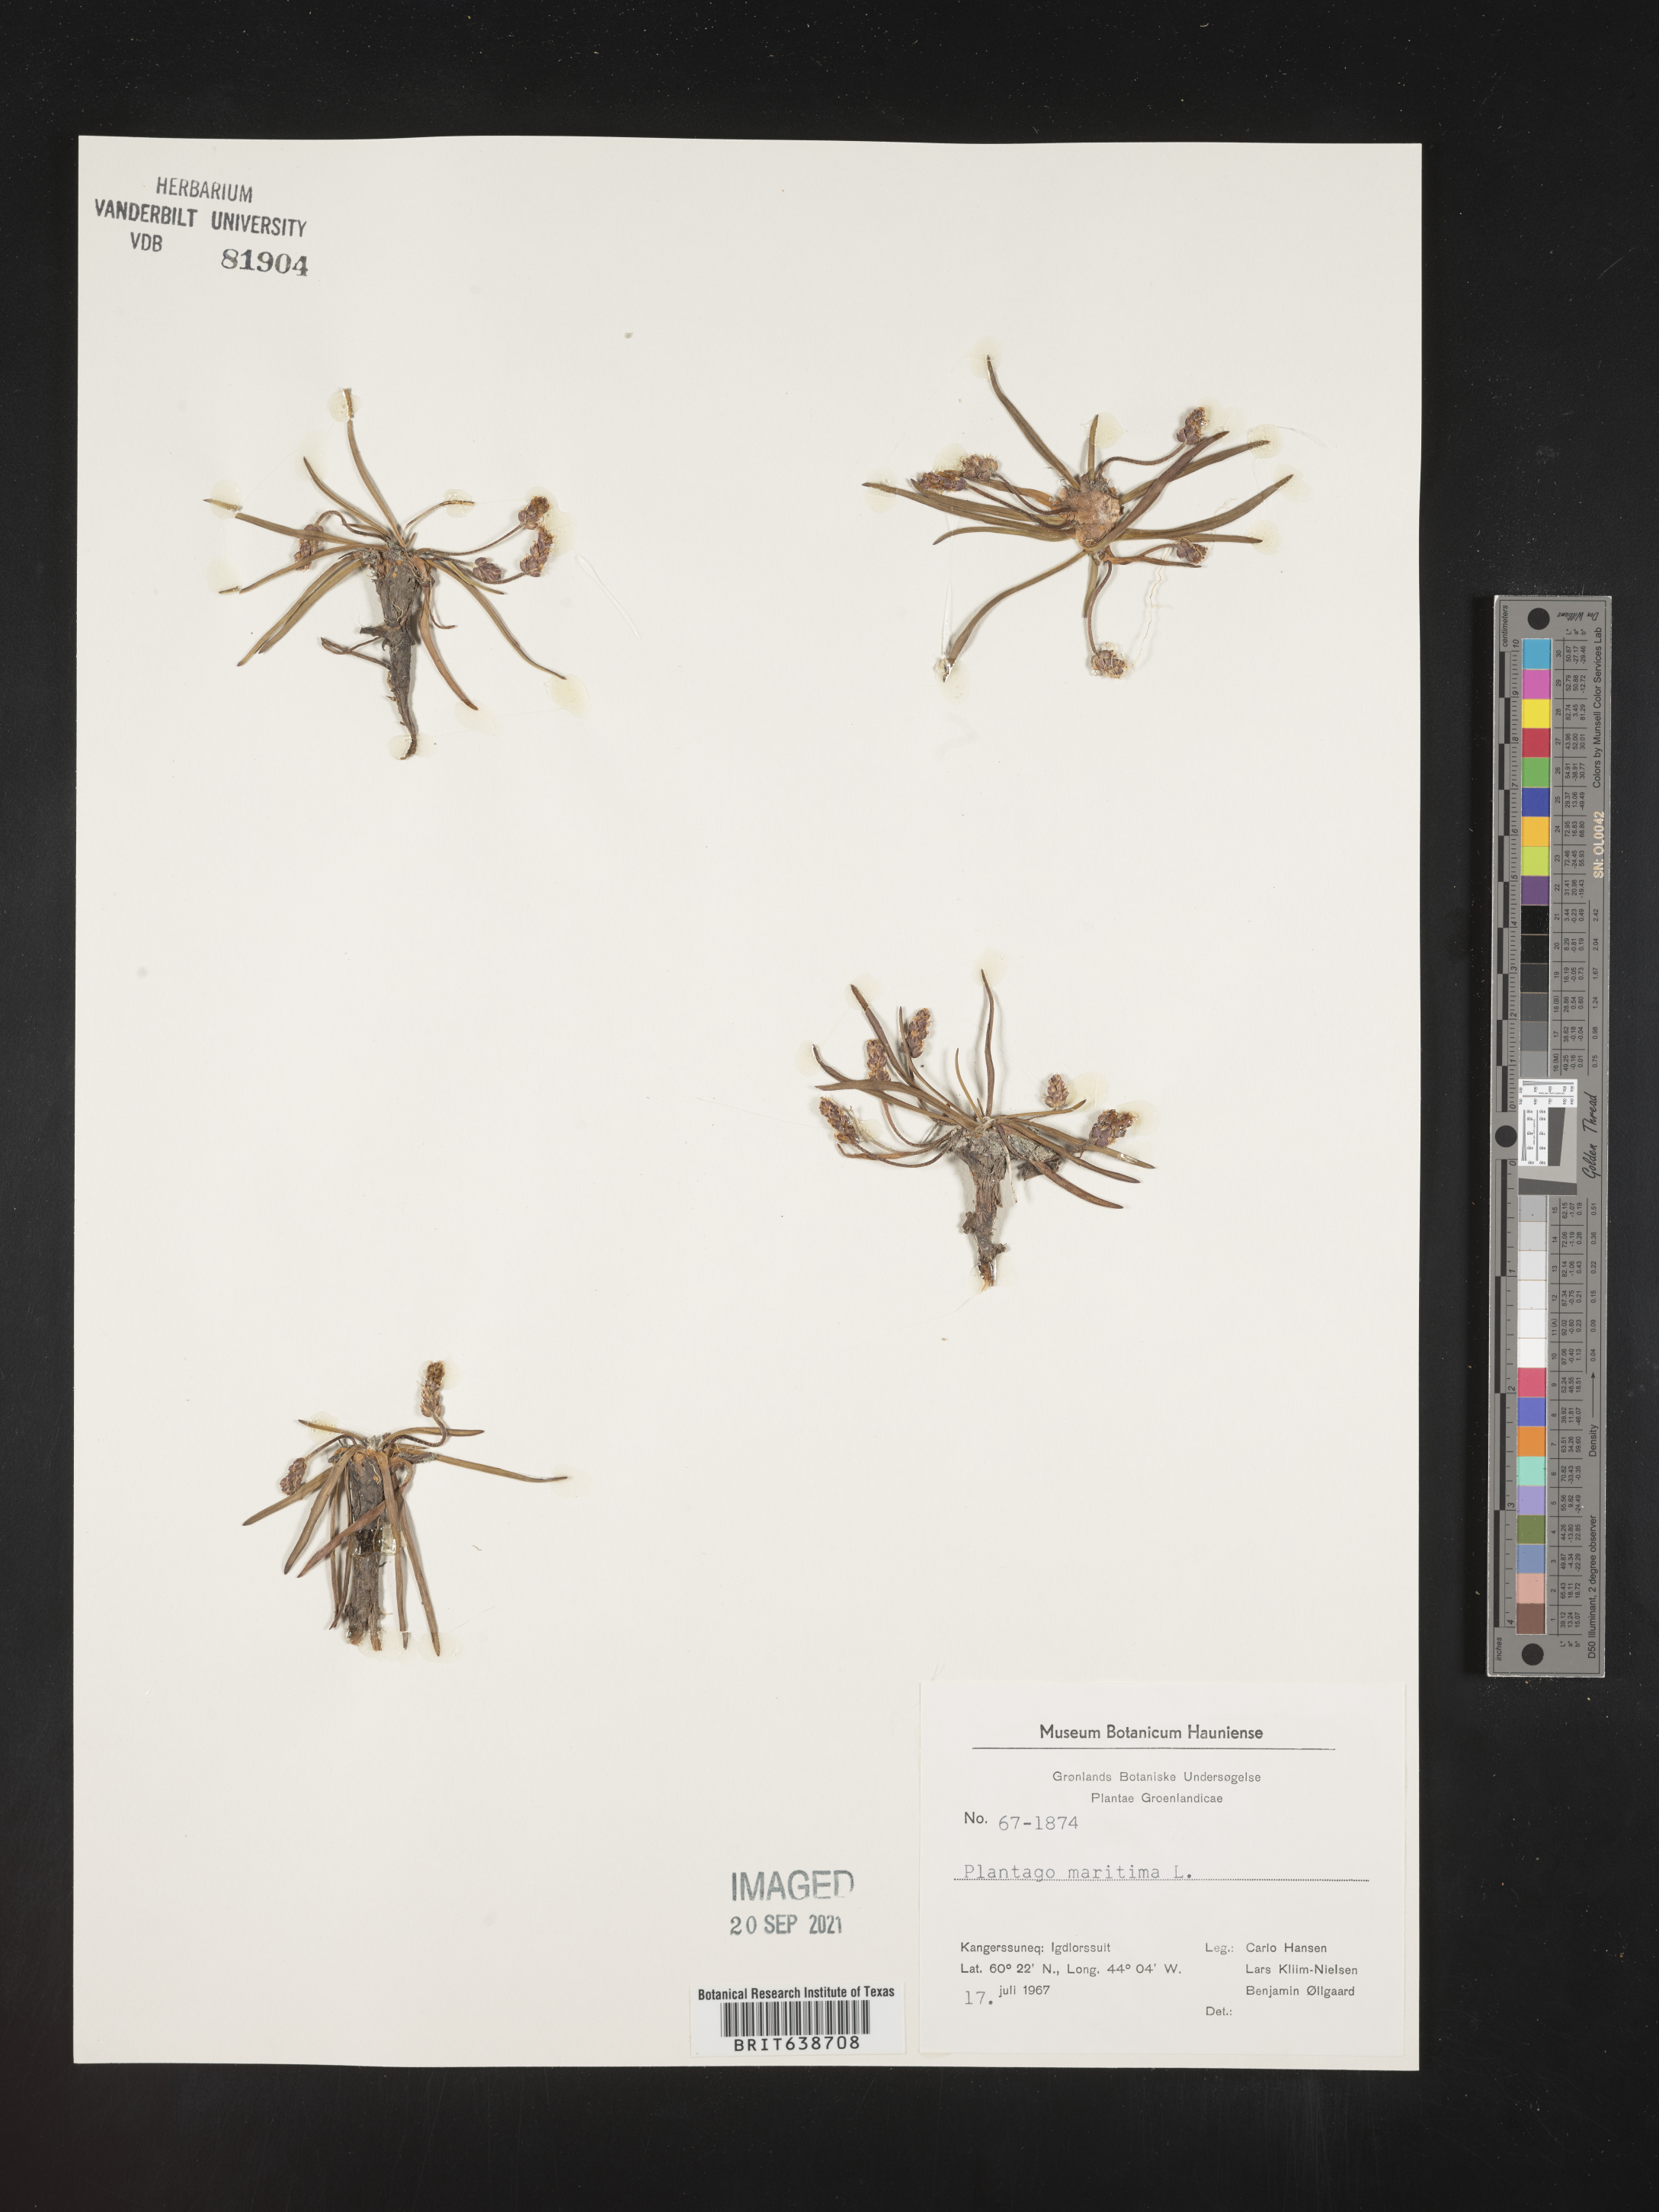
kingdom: Plantae
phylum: Tracheophyta
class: Magnoliopsida
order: Lamiales
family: Plantaginaceae
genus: Plantago
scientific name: Plantago
